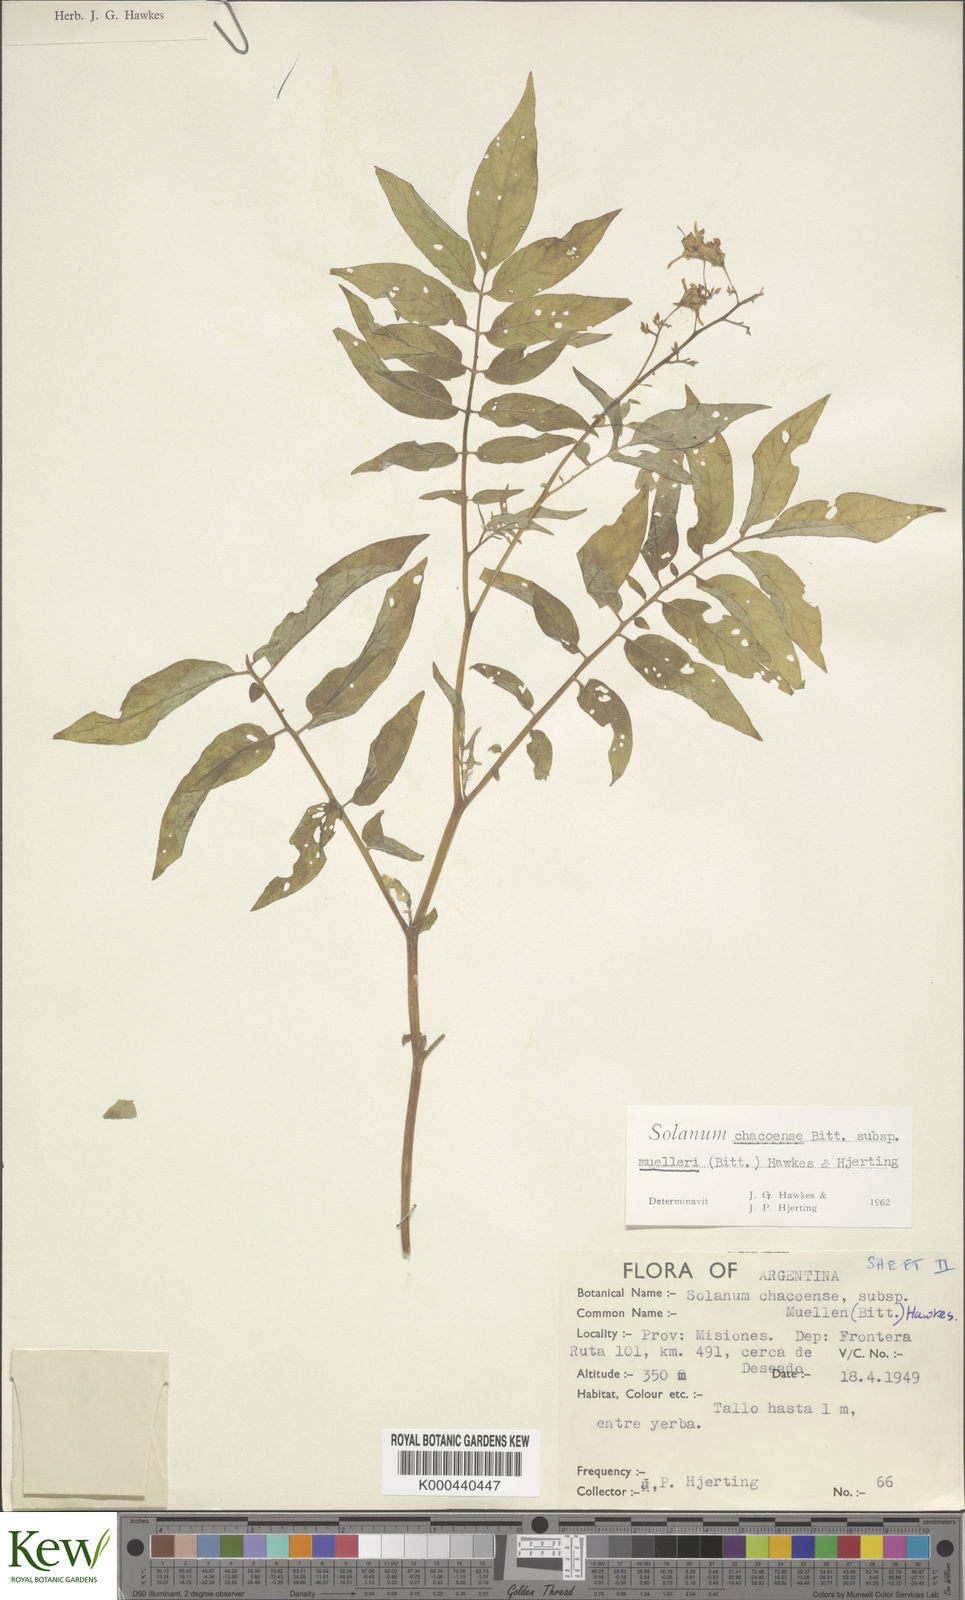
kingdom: Plantae
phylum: Tracheophyta
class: Magnoliopsida
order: Solanales
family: Solanaceae
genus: Solanum
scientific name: Solanum chacoense
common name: Chaco potato
